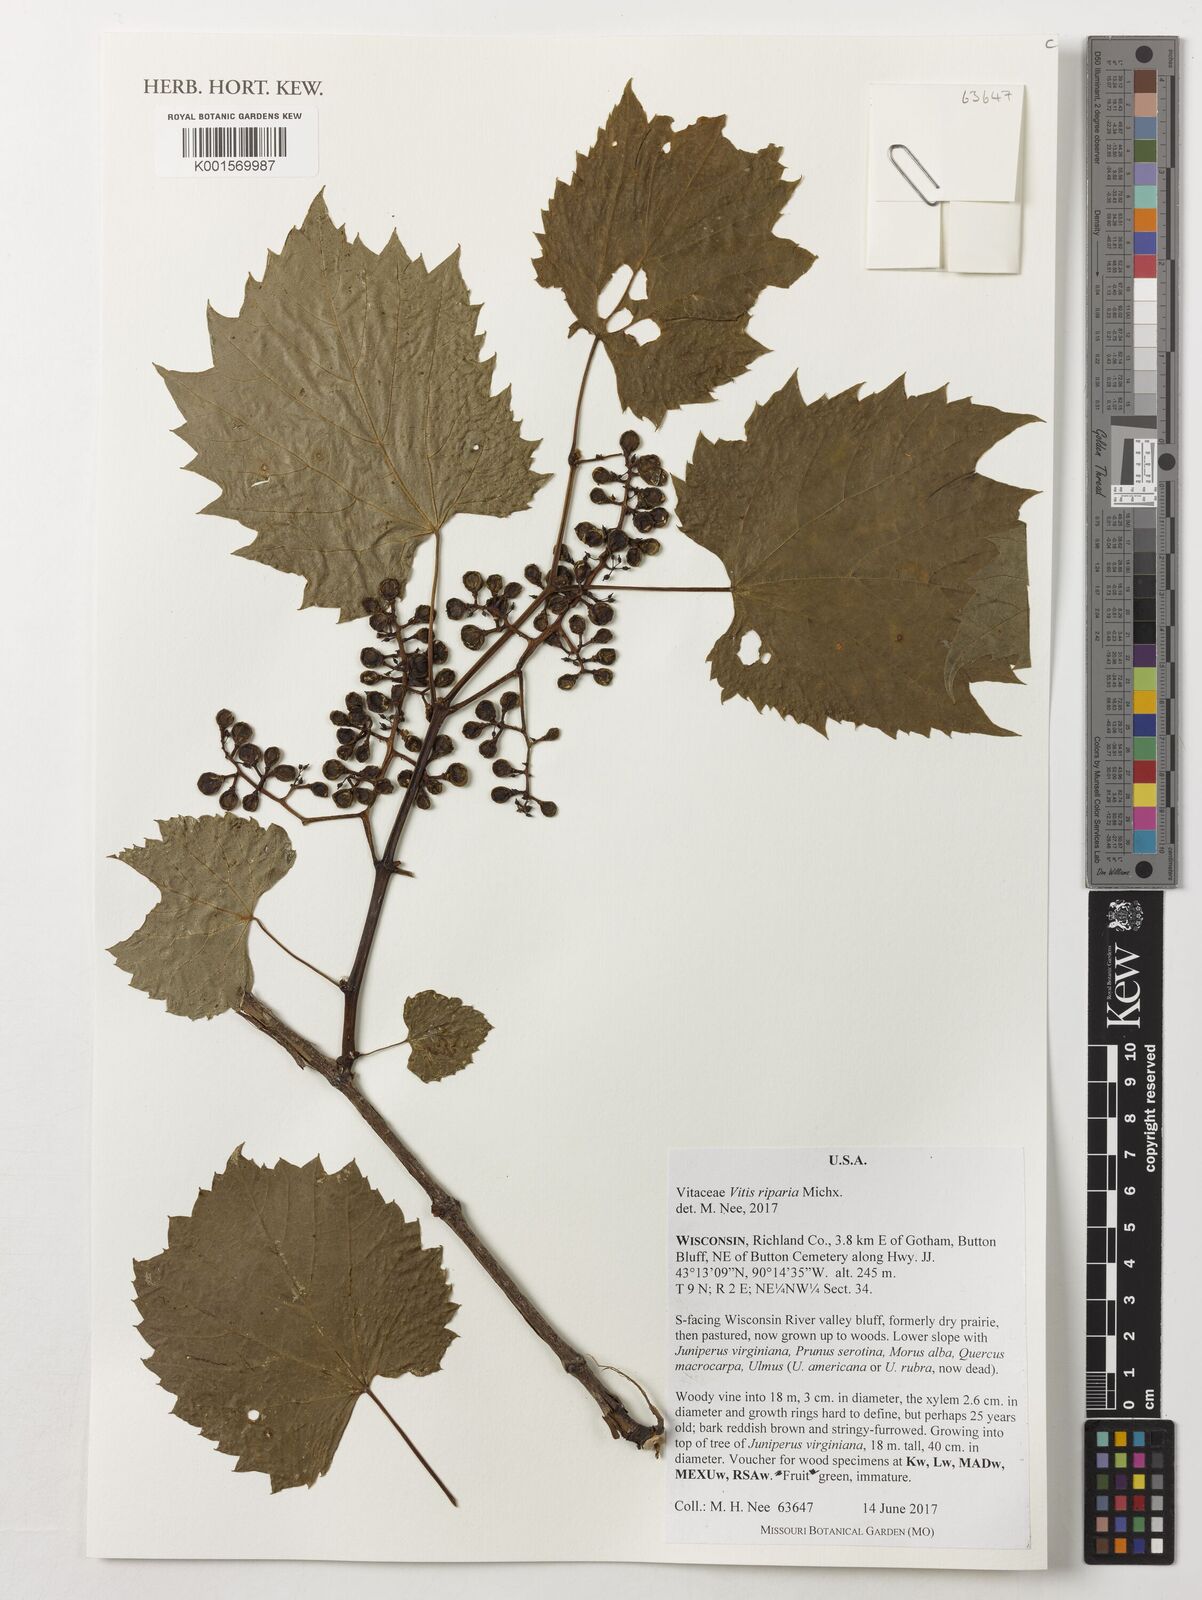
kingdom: Plantae
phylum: Tracheophyta
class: Magnoliopsida
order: Vitales
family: Vitaceae
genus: Vitis
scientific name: Vitis riparia
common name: Frost grape
